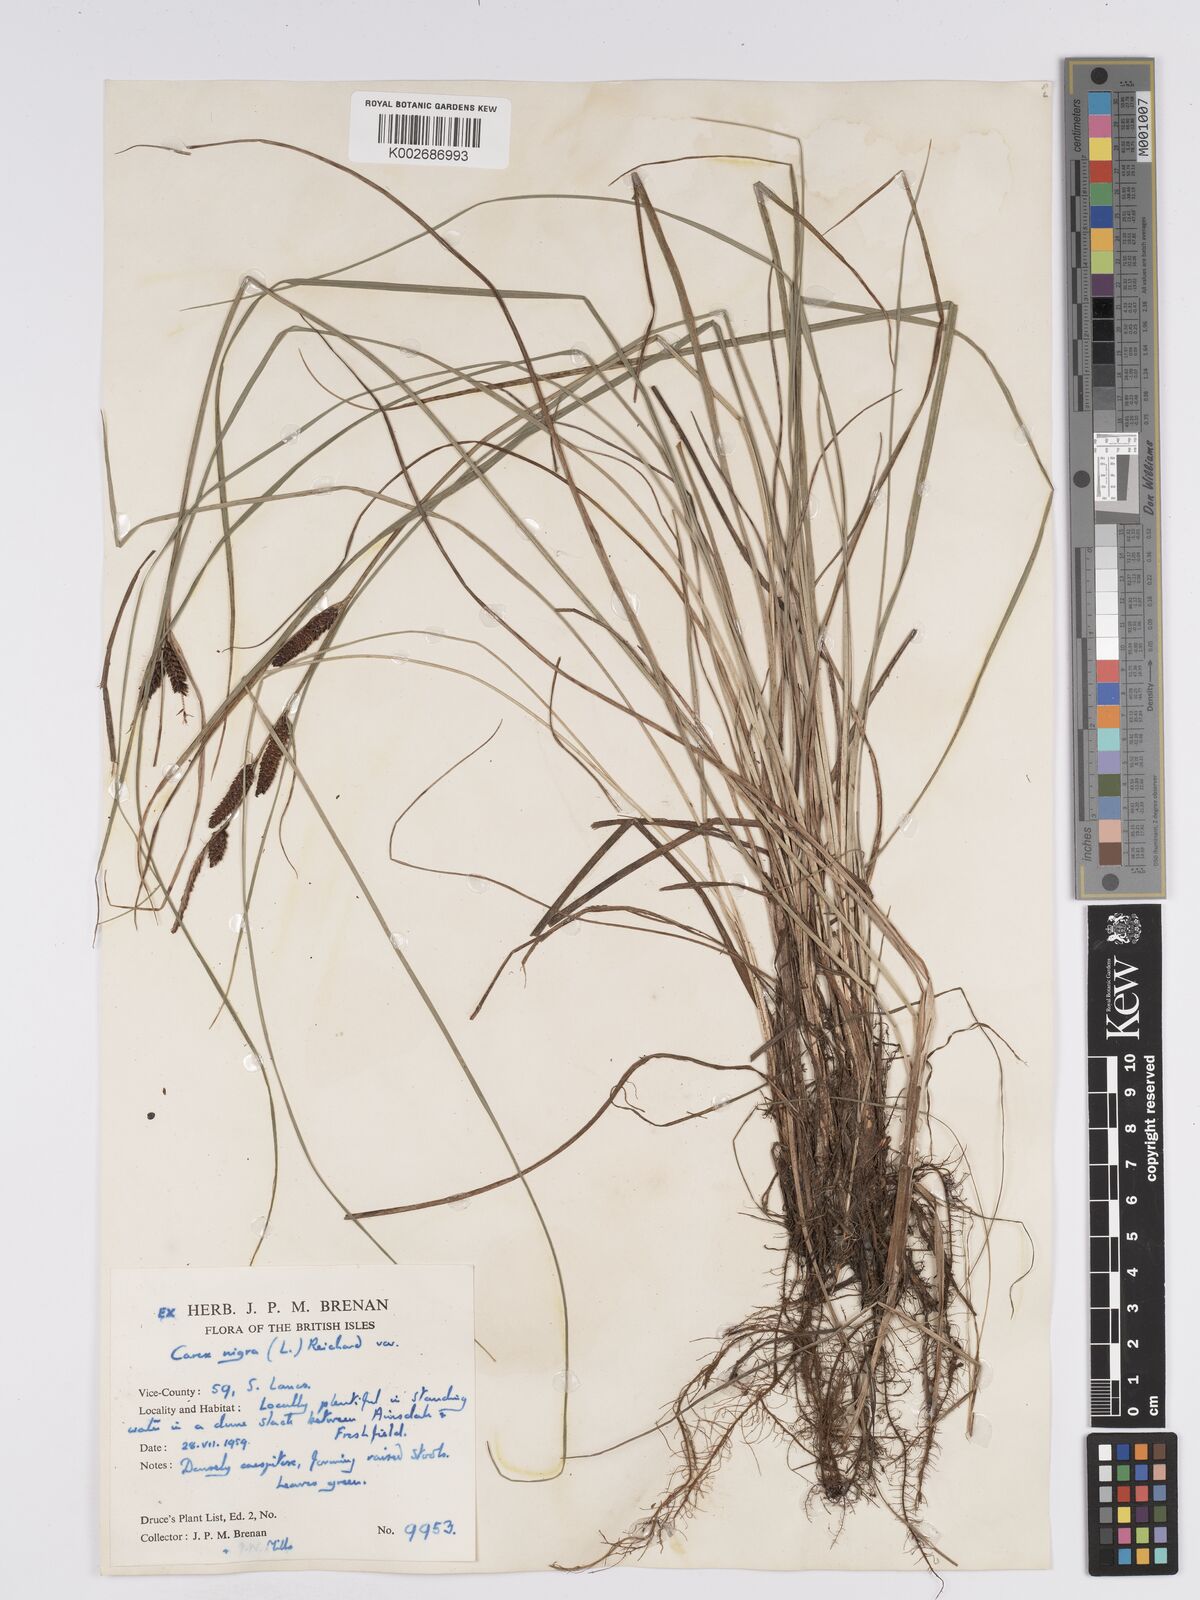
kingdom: Plantae
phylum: Tracheophyta
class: Liliopsida
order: Poales
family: Cyperaceae
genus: Carex
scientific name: Carex nigra
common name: Common sedge
